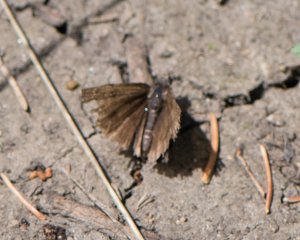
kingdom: Animalia
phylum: Arthropoda
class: Insecta
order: Lepidoptera
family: Hesperiidae
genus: Gesta
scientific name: Gesta
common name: Columbine Duskywing
